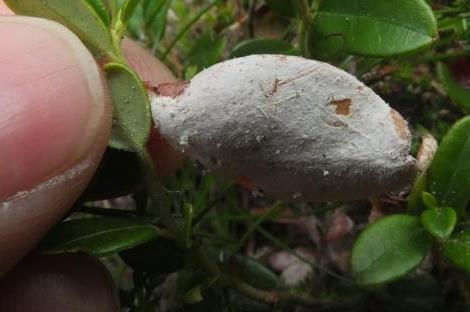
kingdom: Fungi
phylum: Basidiomycota
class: Exobasidiomycetes
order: Exobasidiales
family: Exobasidiaceae
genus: Exobasidium
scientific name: Exobasidium vaccinii
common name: tyttebærblad-bøllesvamp
